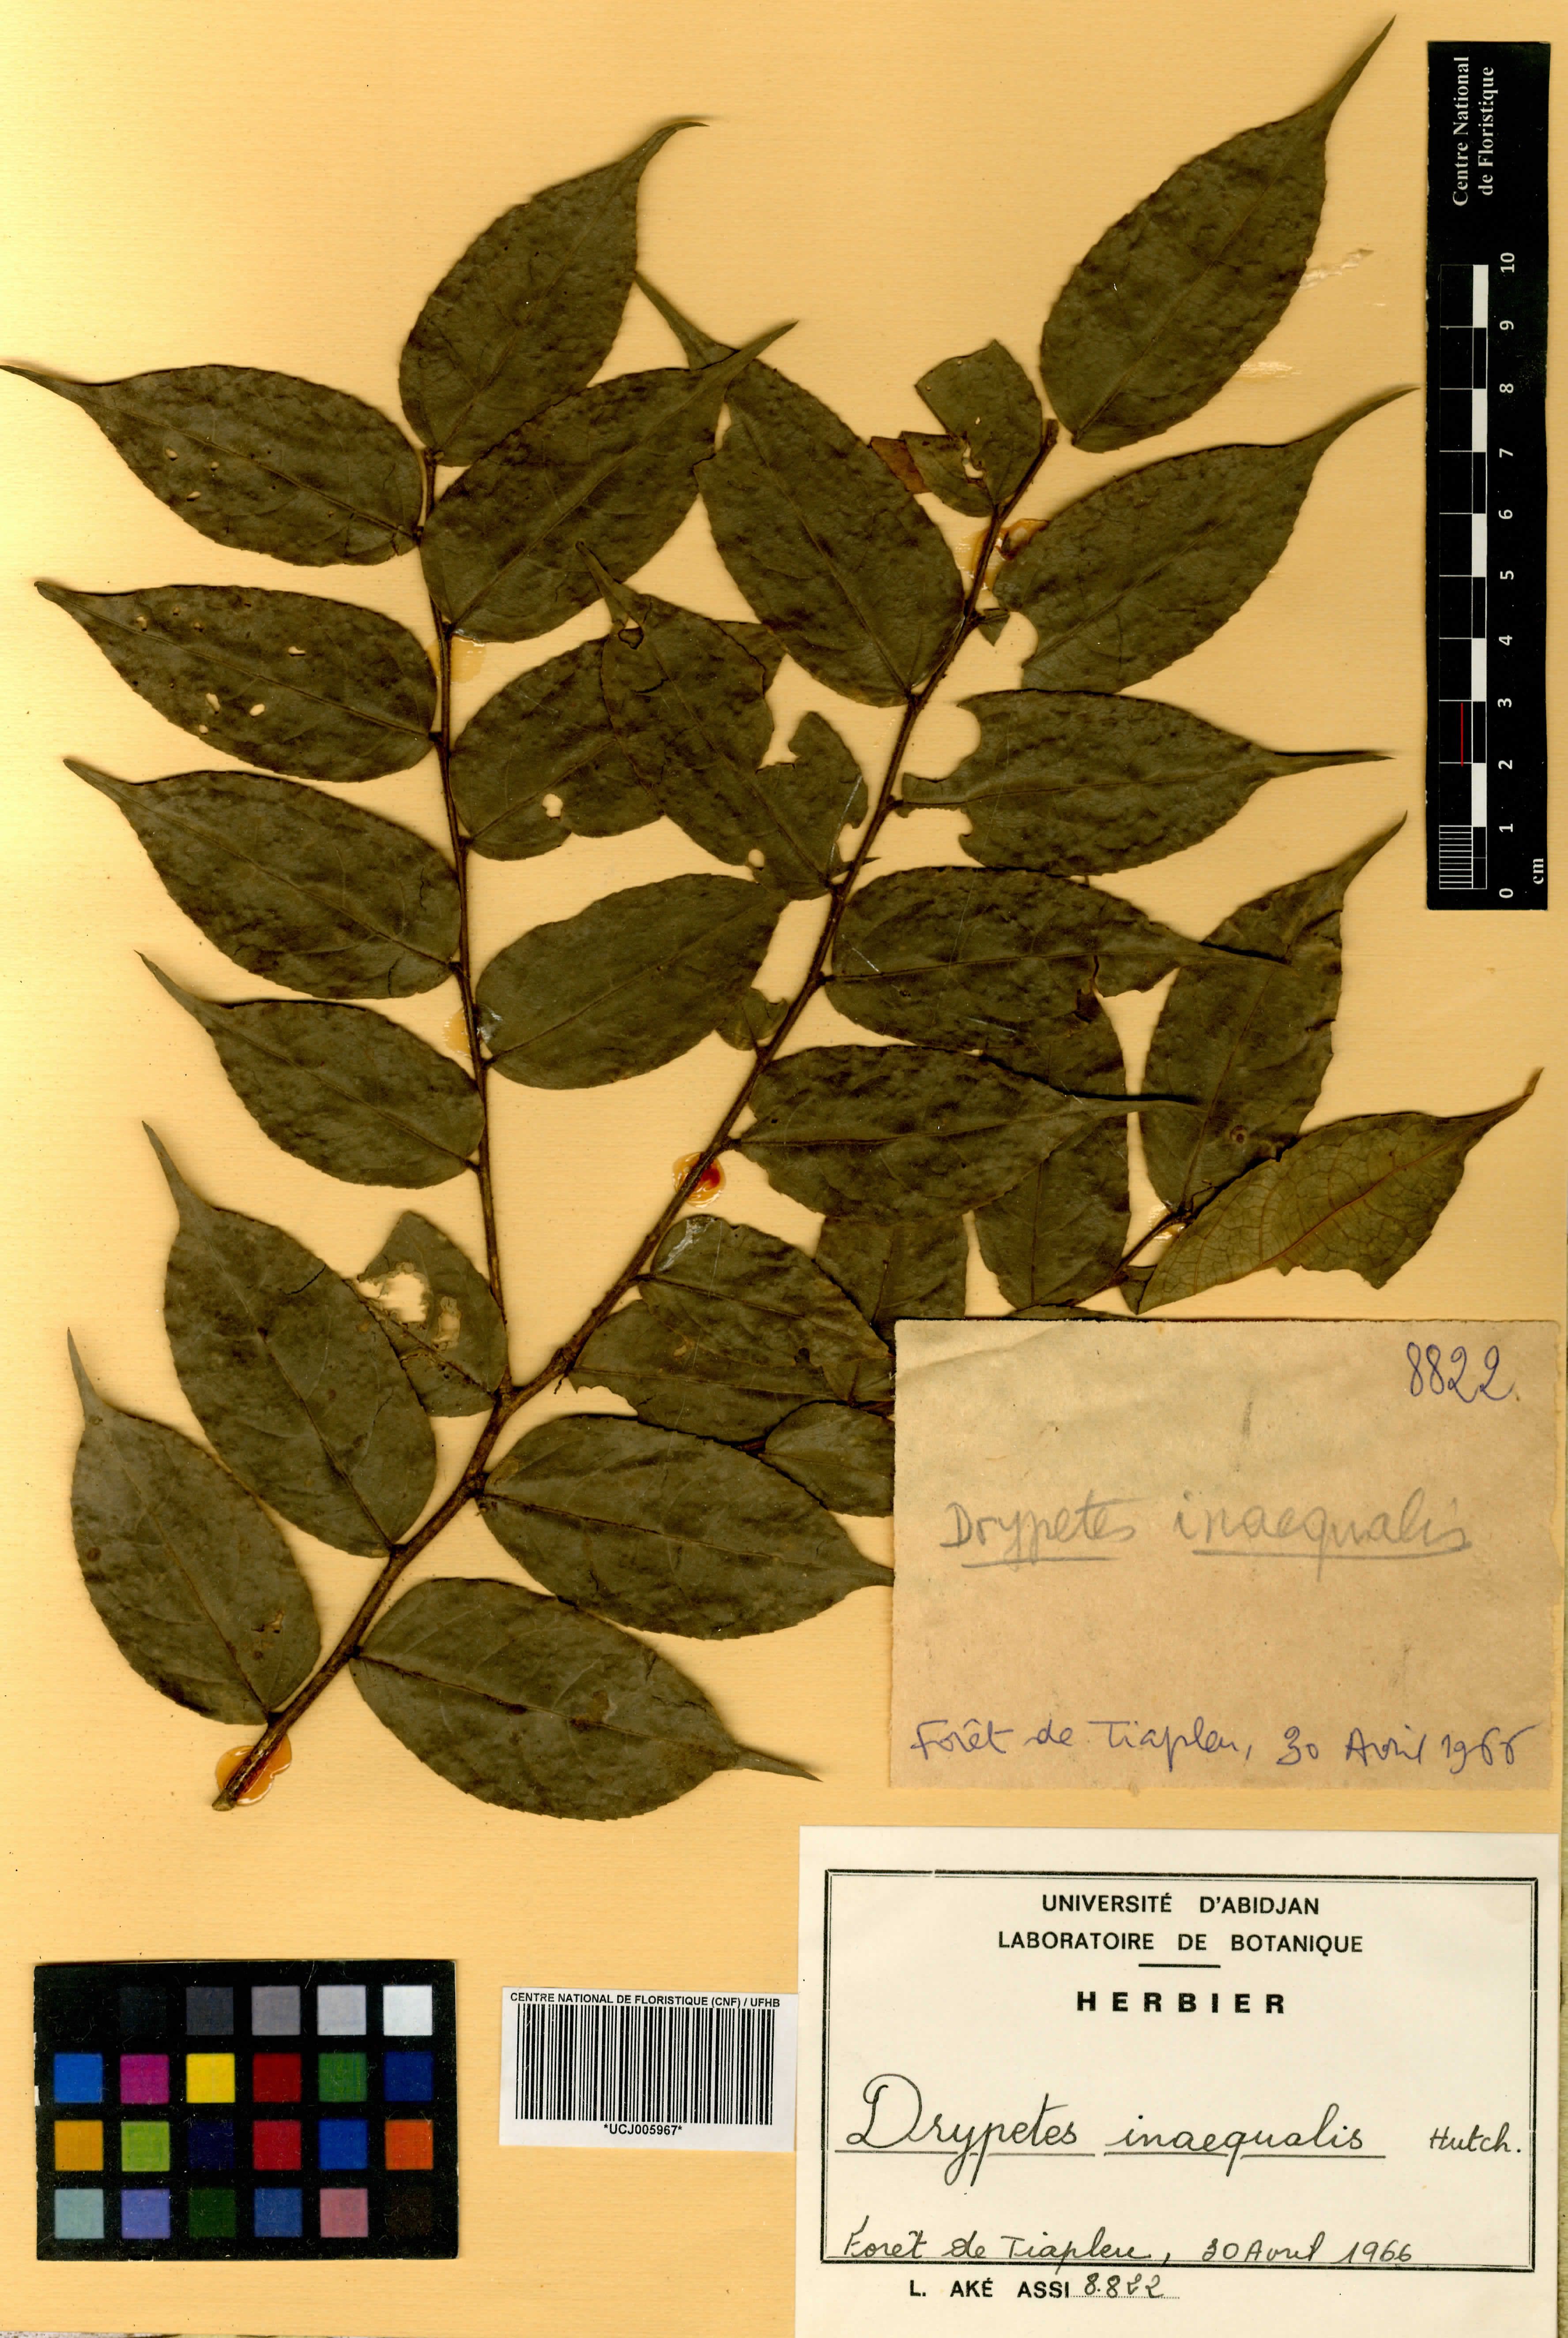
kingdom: Plantae
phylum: Tracheophyta
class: Magnoliopsida
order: Malpighiales
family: Putranjivaceae
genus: Drypetes
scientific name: Drypetes inaequalis
